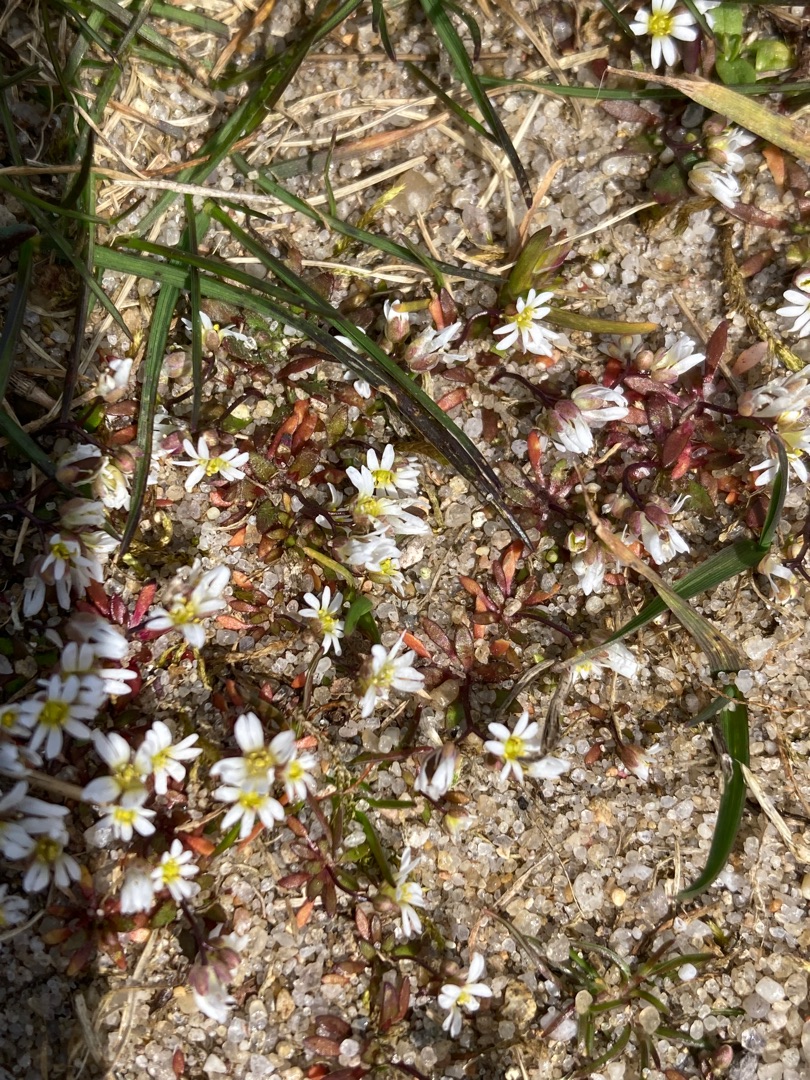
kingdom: Plantae
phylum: Tracheophyta
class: Magnoliopsida
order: Brassicales
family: Brassicaceae
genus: Draba
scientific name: Draba verna
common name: Vår-gæslingeblomst
